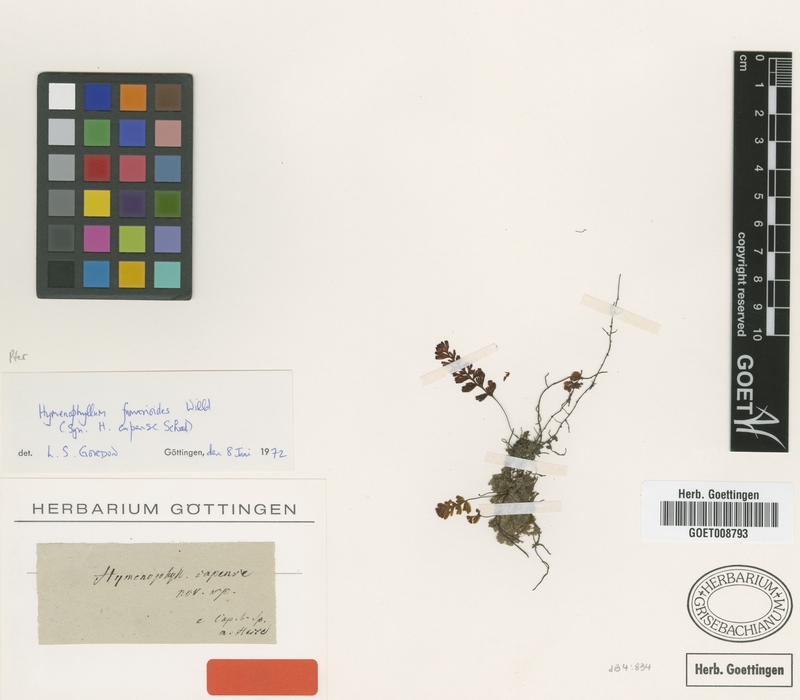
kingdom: Plantae
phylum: Tracheophyta
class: Polypodiopsida
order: Hymenophyllales
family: Hymenophyllaceae
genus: Hymenophyllum
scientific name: Hymenophyllum fumarioides
